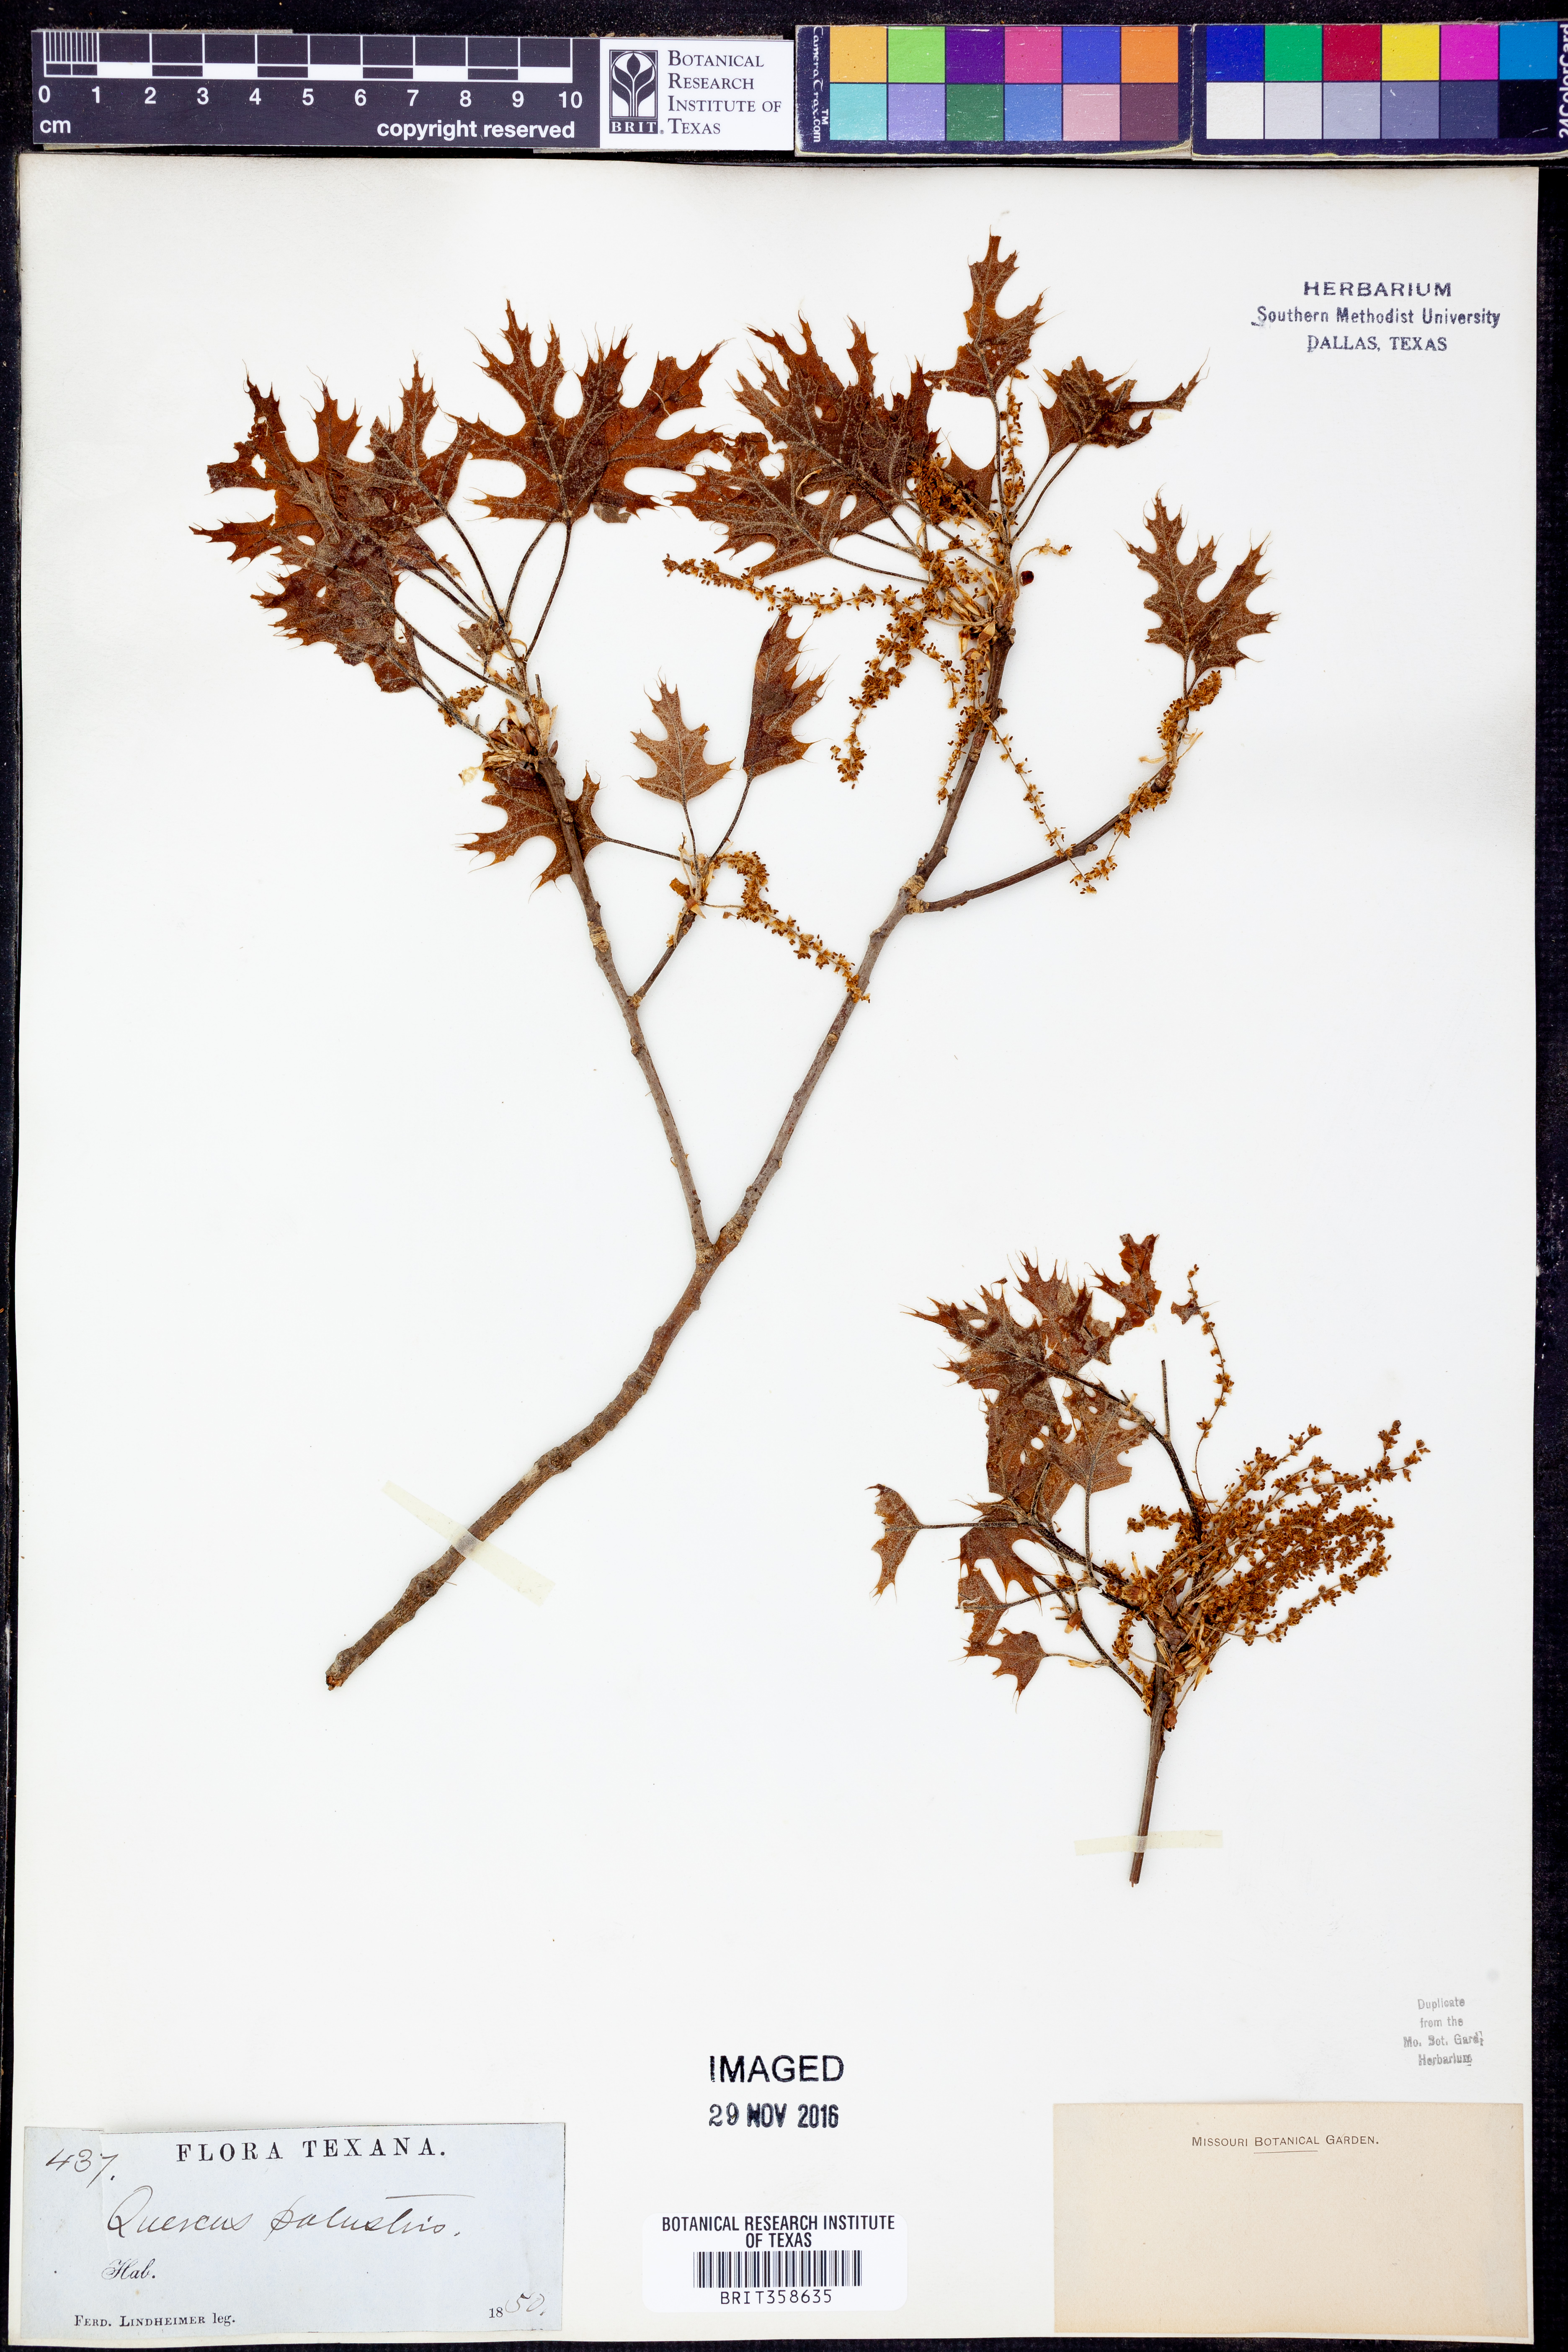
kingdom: Plantae
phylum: Tracheophyta
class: Magnoliopsida
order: Fagales
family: Fagaceae
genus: Quercus
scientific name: Quercus palustris
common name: Pin oak
